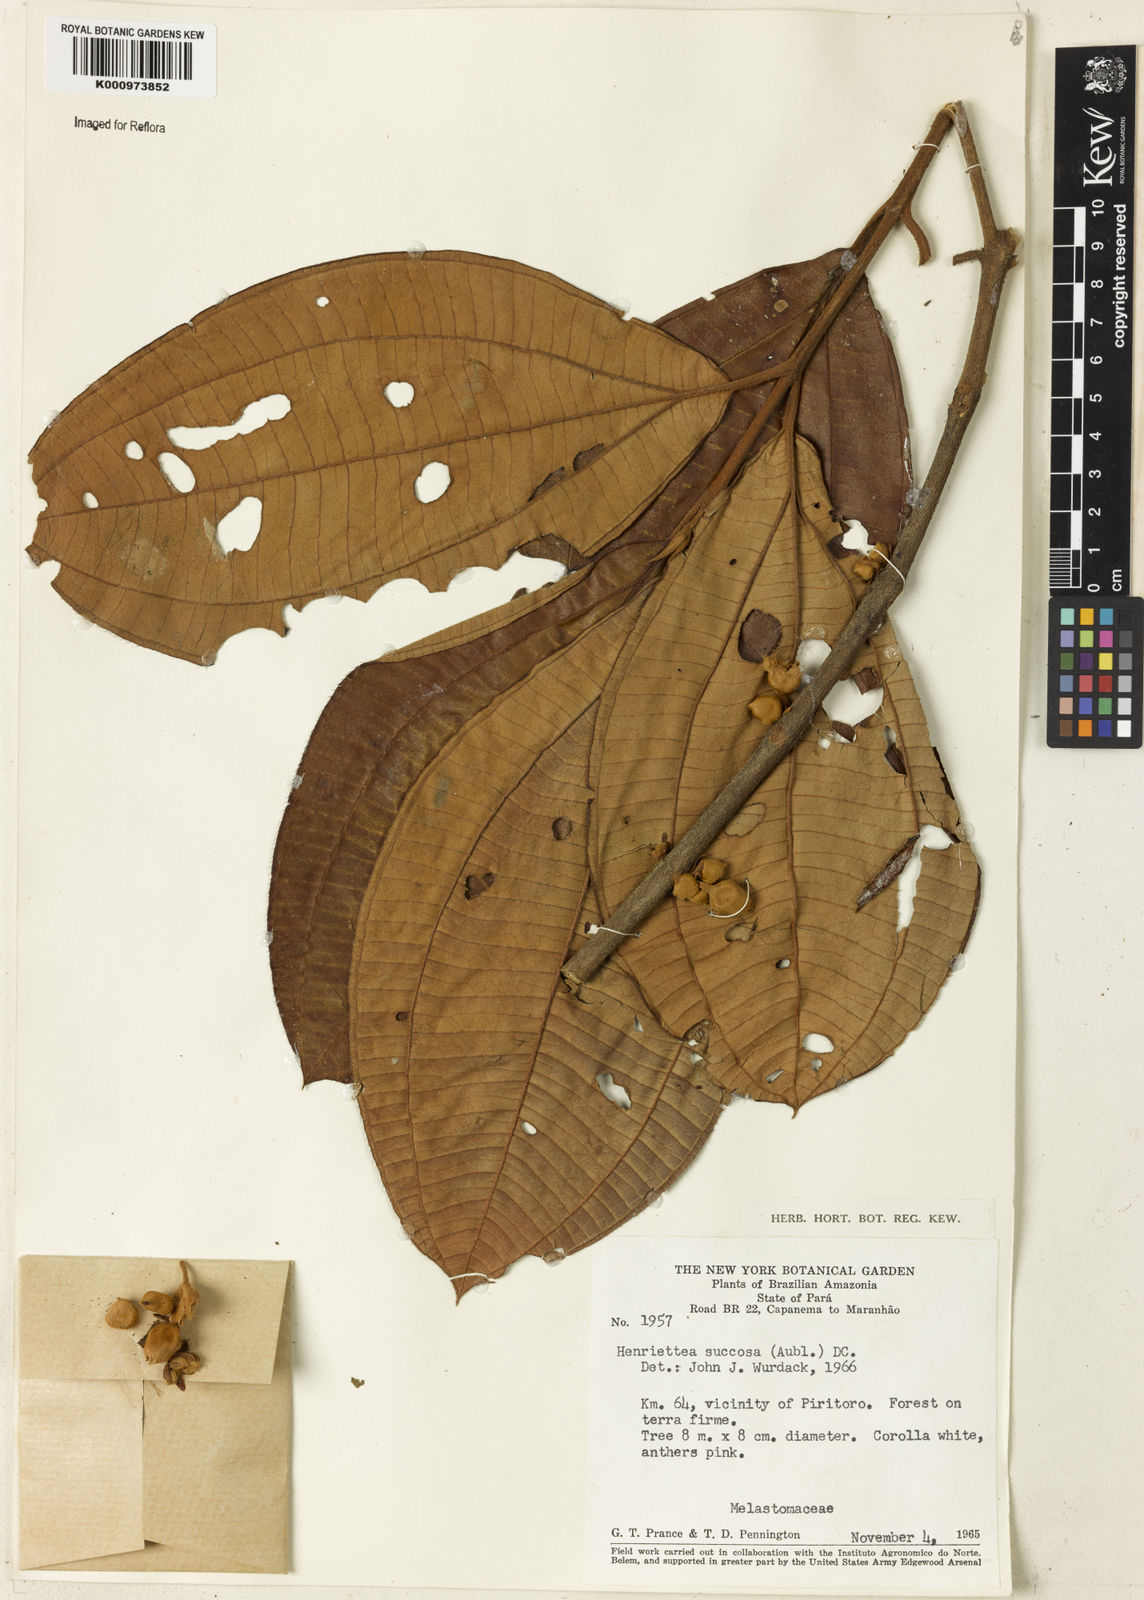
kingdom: Plantae
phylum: Tracheophyta
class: Magnoliopsida
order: Myrtales
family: Melastomataceae
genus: Henriettea
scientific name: Henriettea succosa
